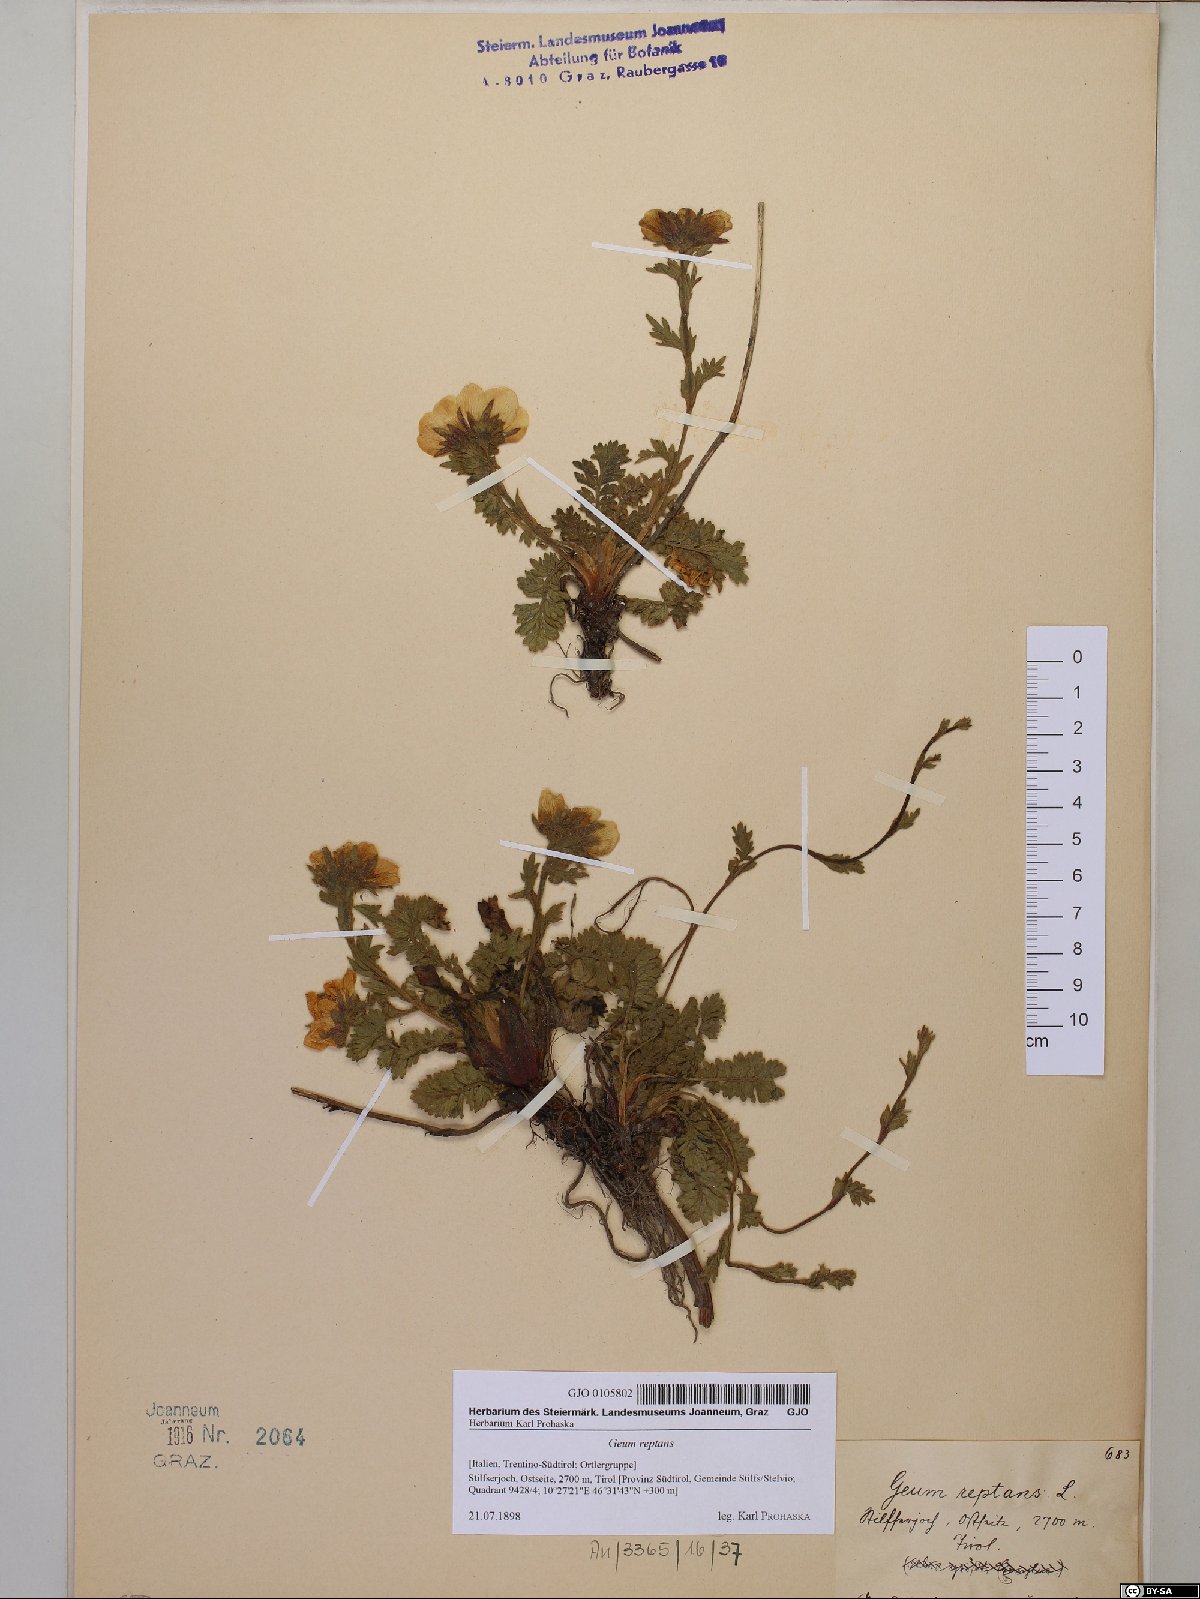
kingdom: Plantae
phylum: Tracheophyta
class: Magnoliopsida
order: Rosales
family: Rosaceae
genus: Geum
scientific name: Geum reptans
